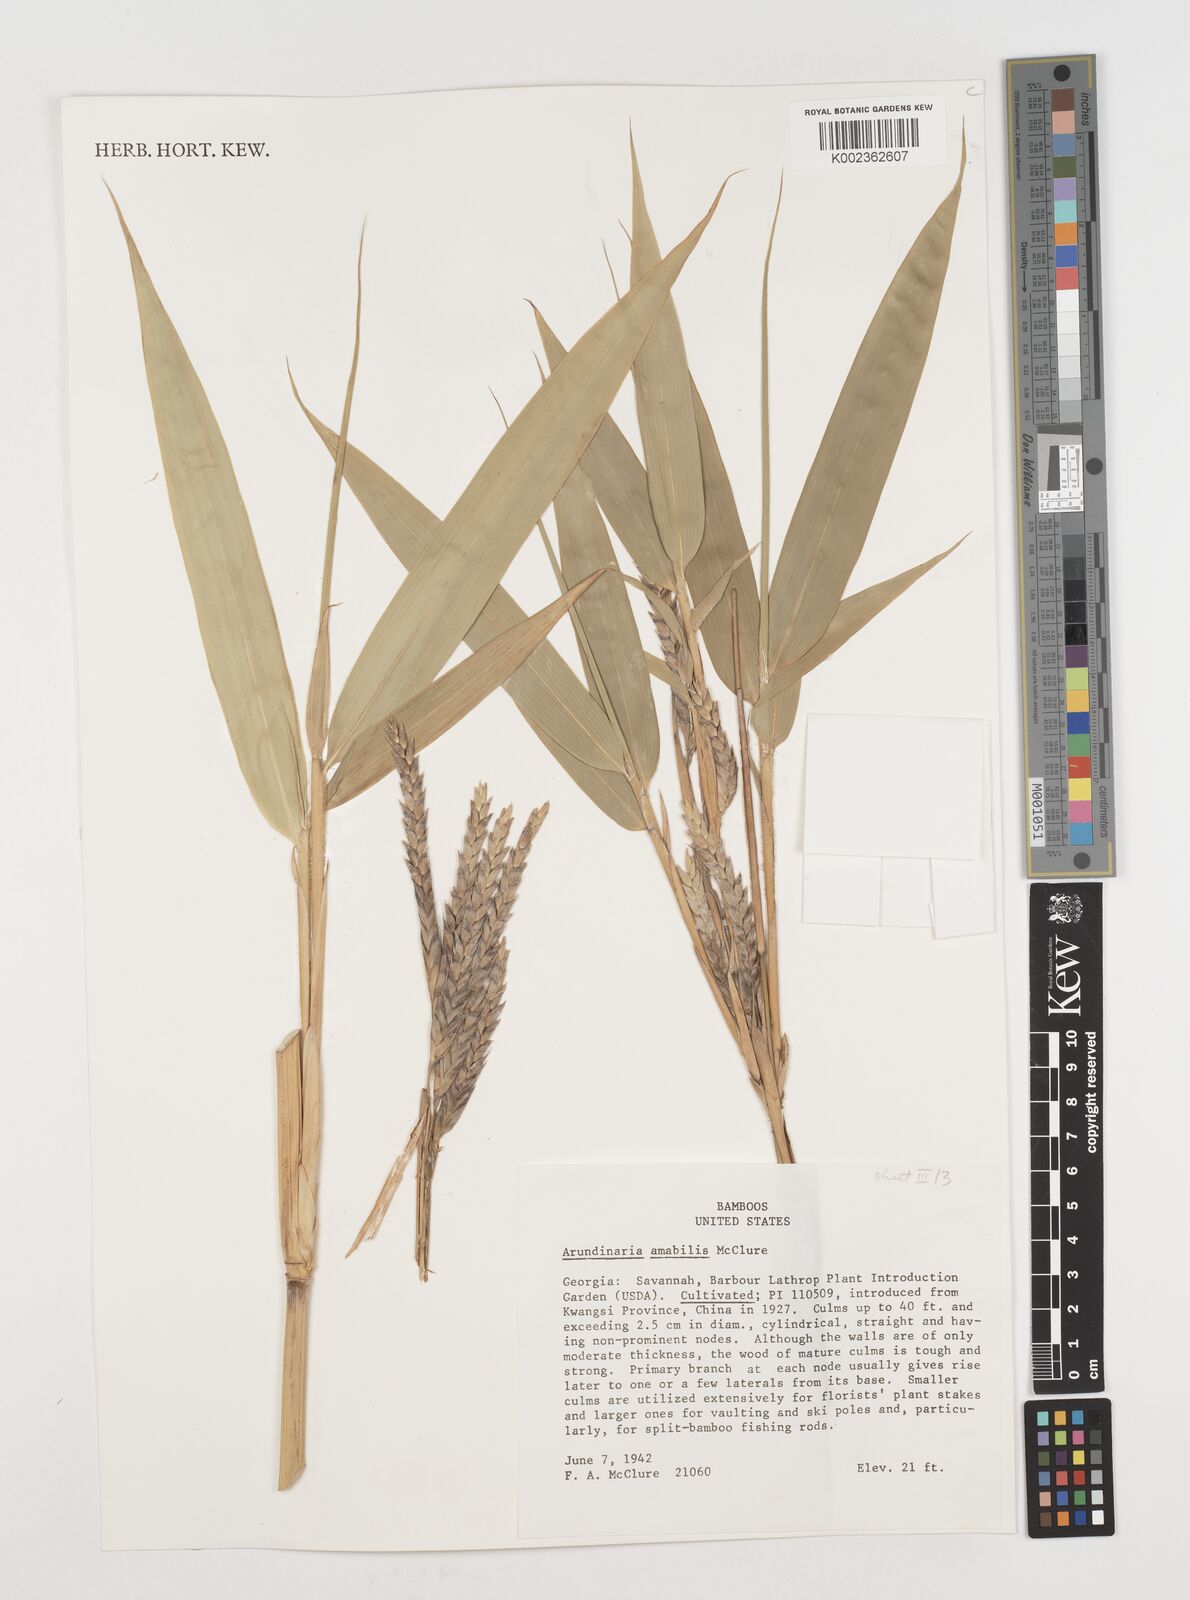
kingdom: Plantae
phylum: Tracheophyta
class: Liliopsida
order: Poales
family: Poaceae
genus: Pseudosasa
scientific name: Pseudosasa amabilis
